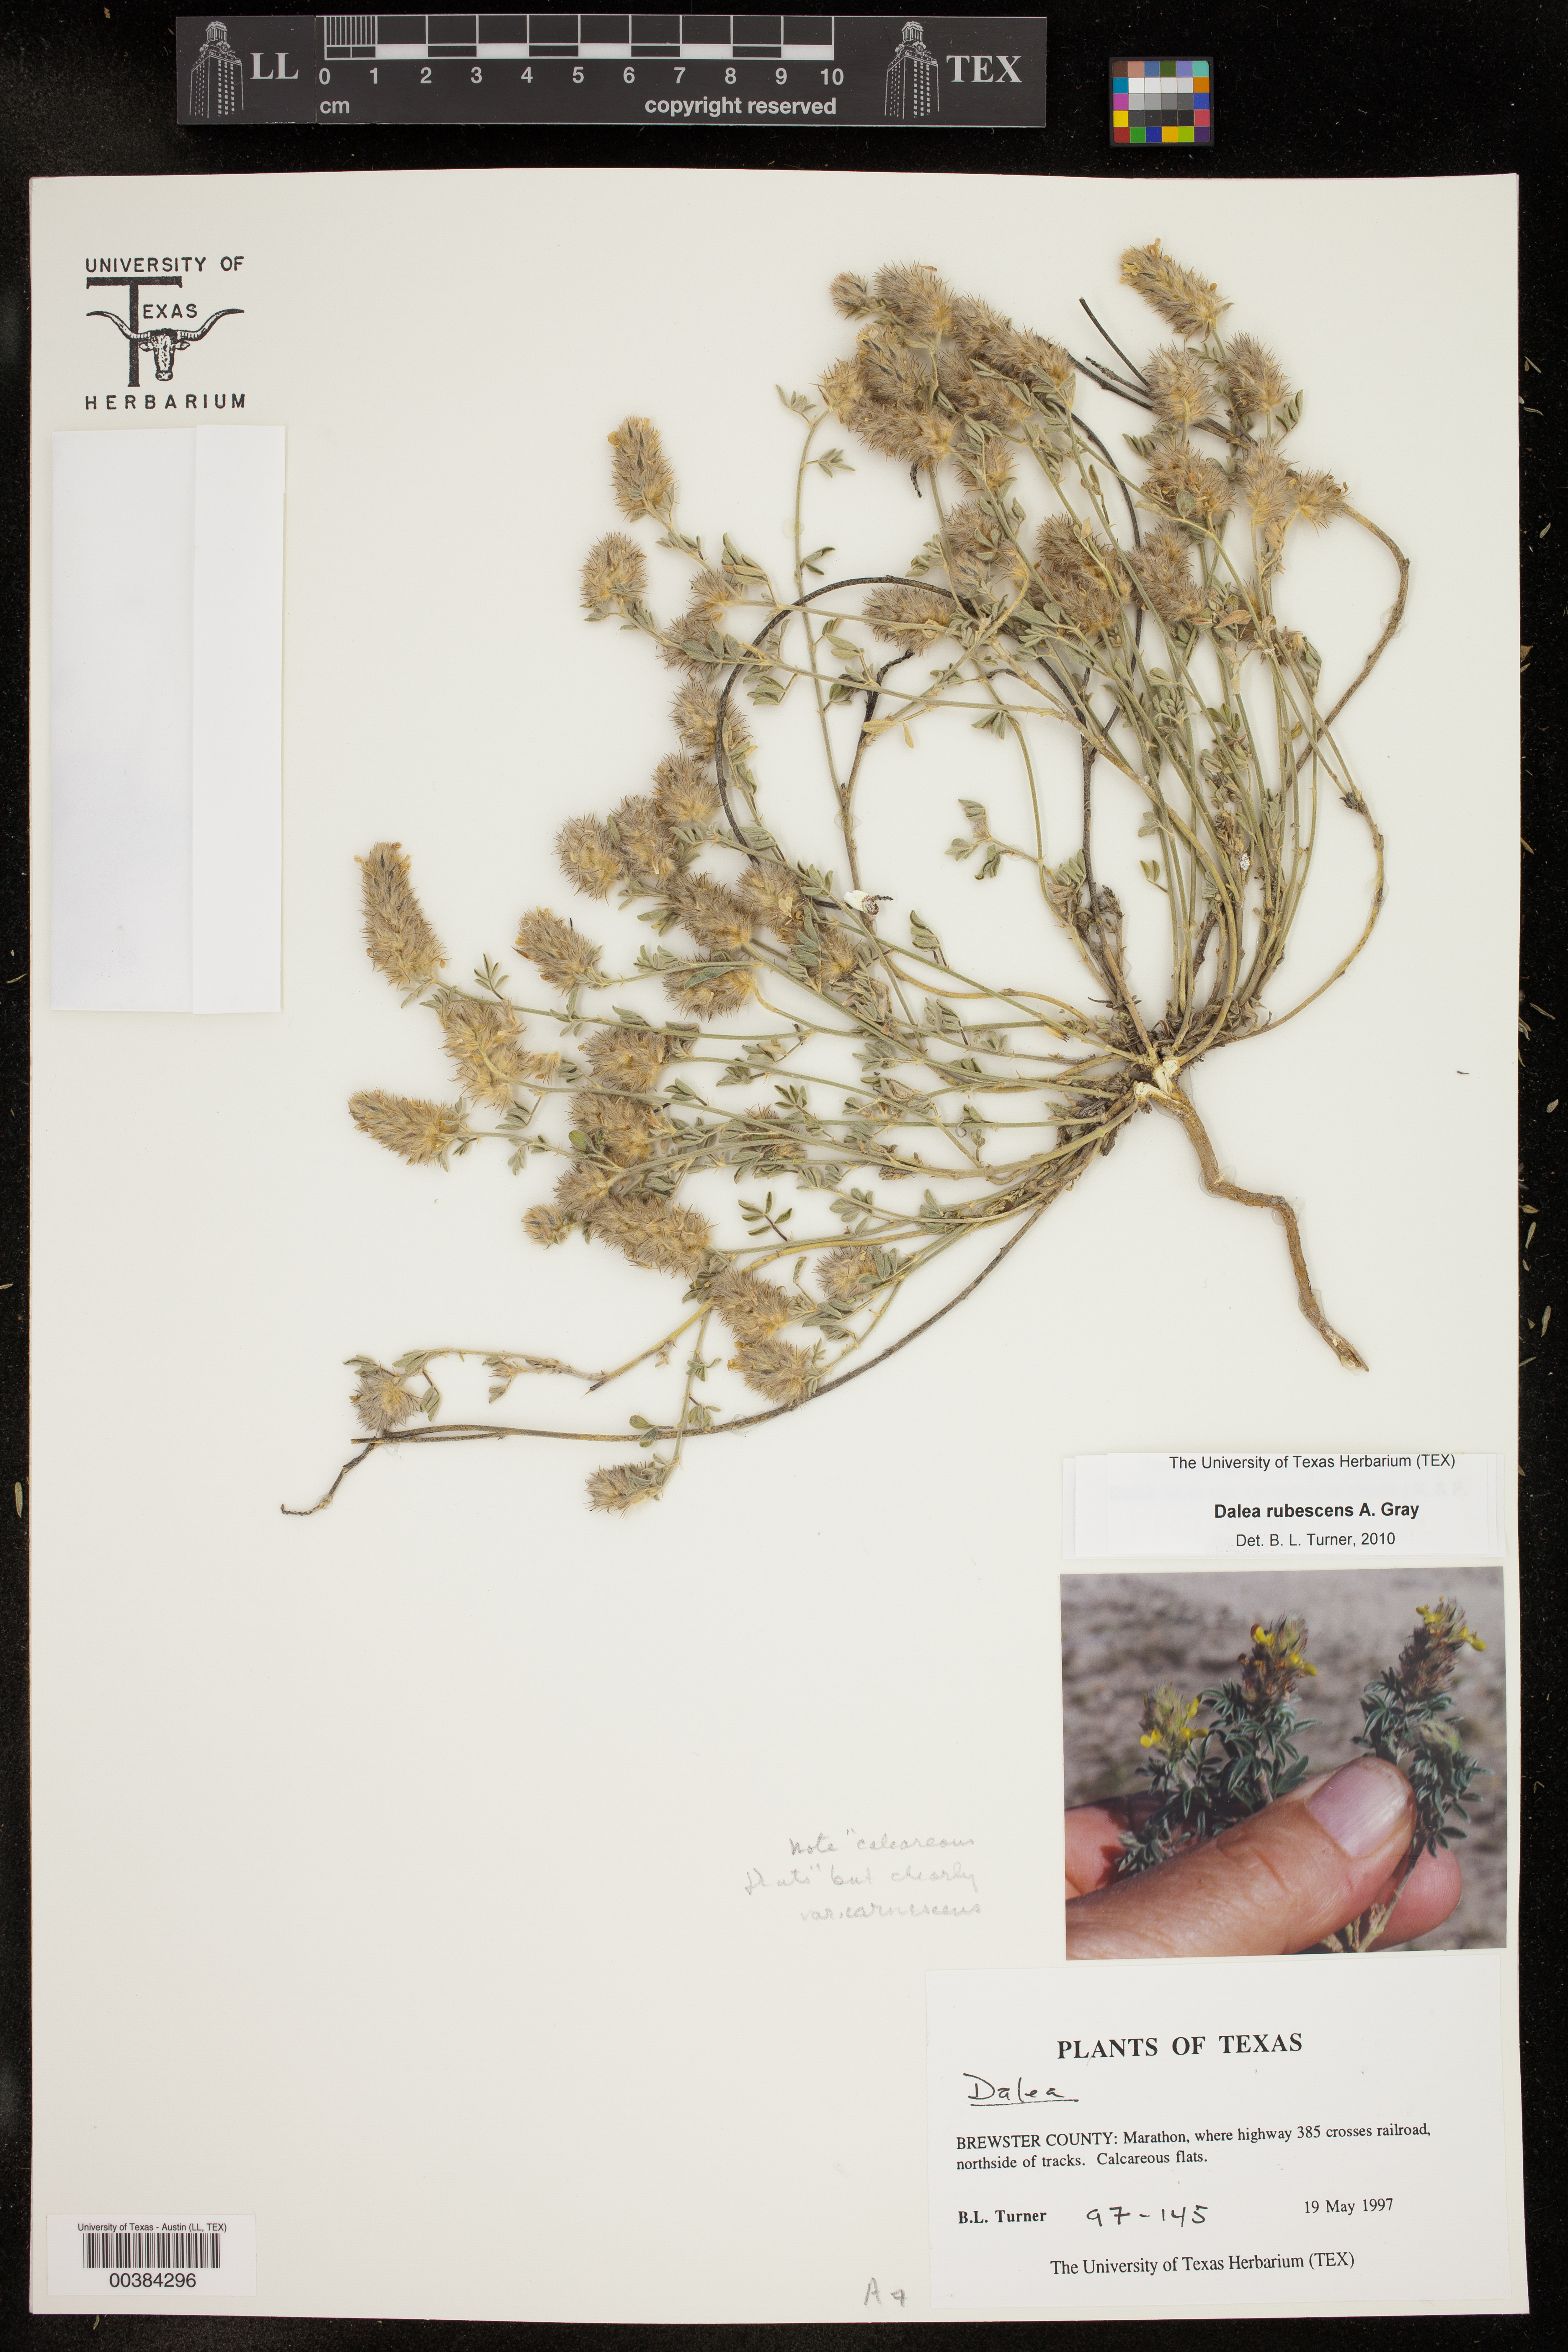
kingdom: Plantae
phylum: Tracheophyta
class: Magnoliopsida
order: Fabales
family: Fabaceae
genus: Dalea
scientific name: Dalea rubescens
